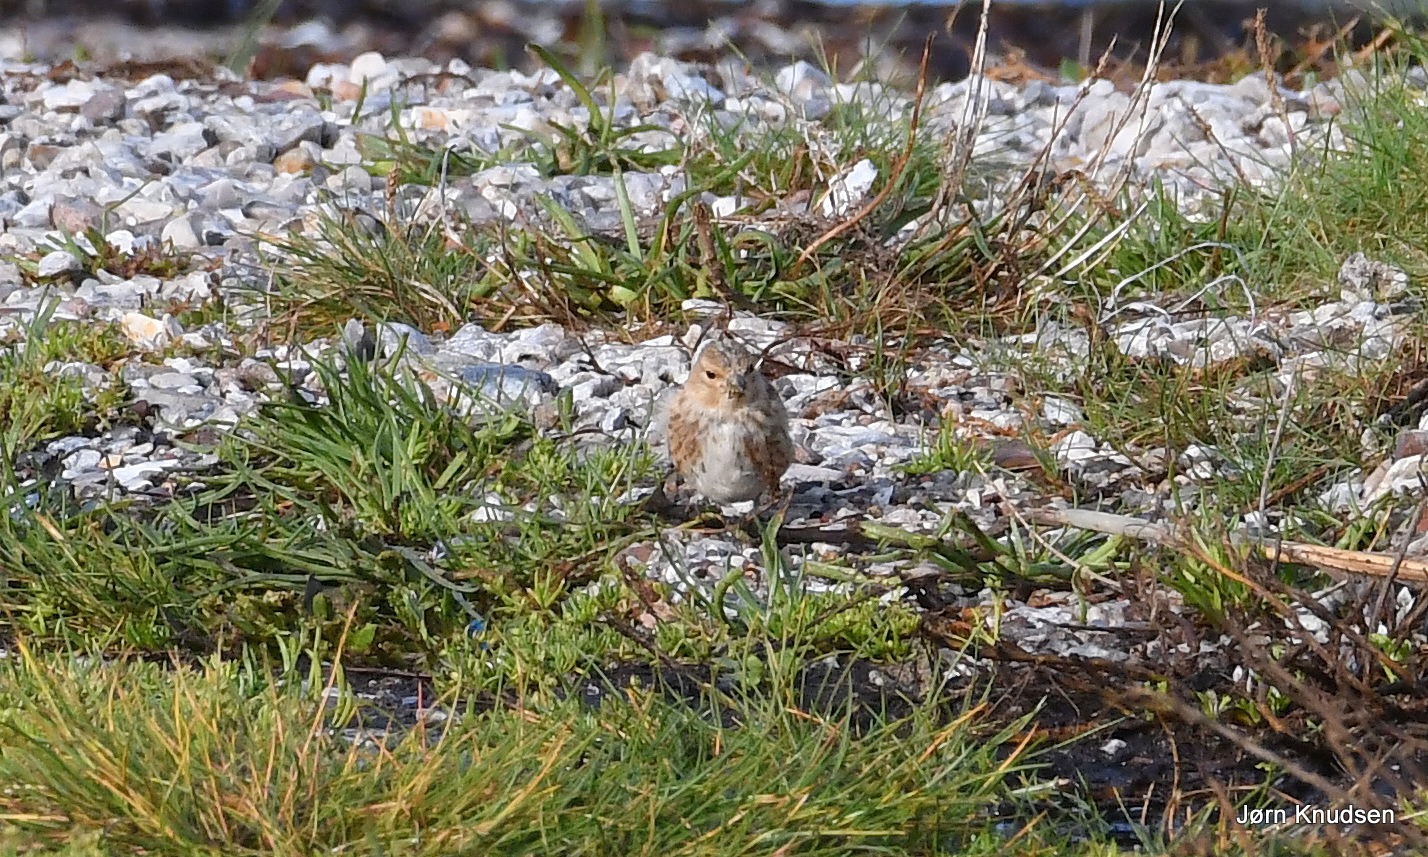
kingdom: Animalia
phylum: Chordata
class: Aves
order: Passeriformes
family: Fringillidae
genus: Linaria
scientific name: Linaria cannabina
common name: Tornirisk
